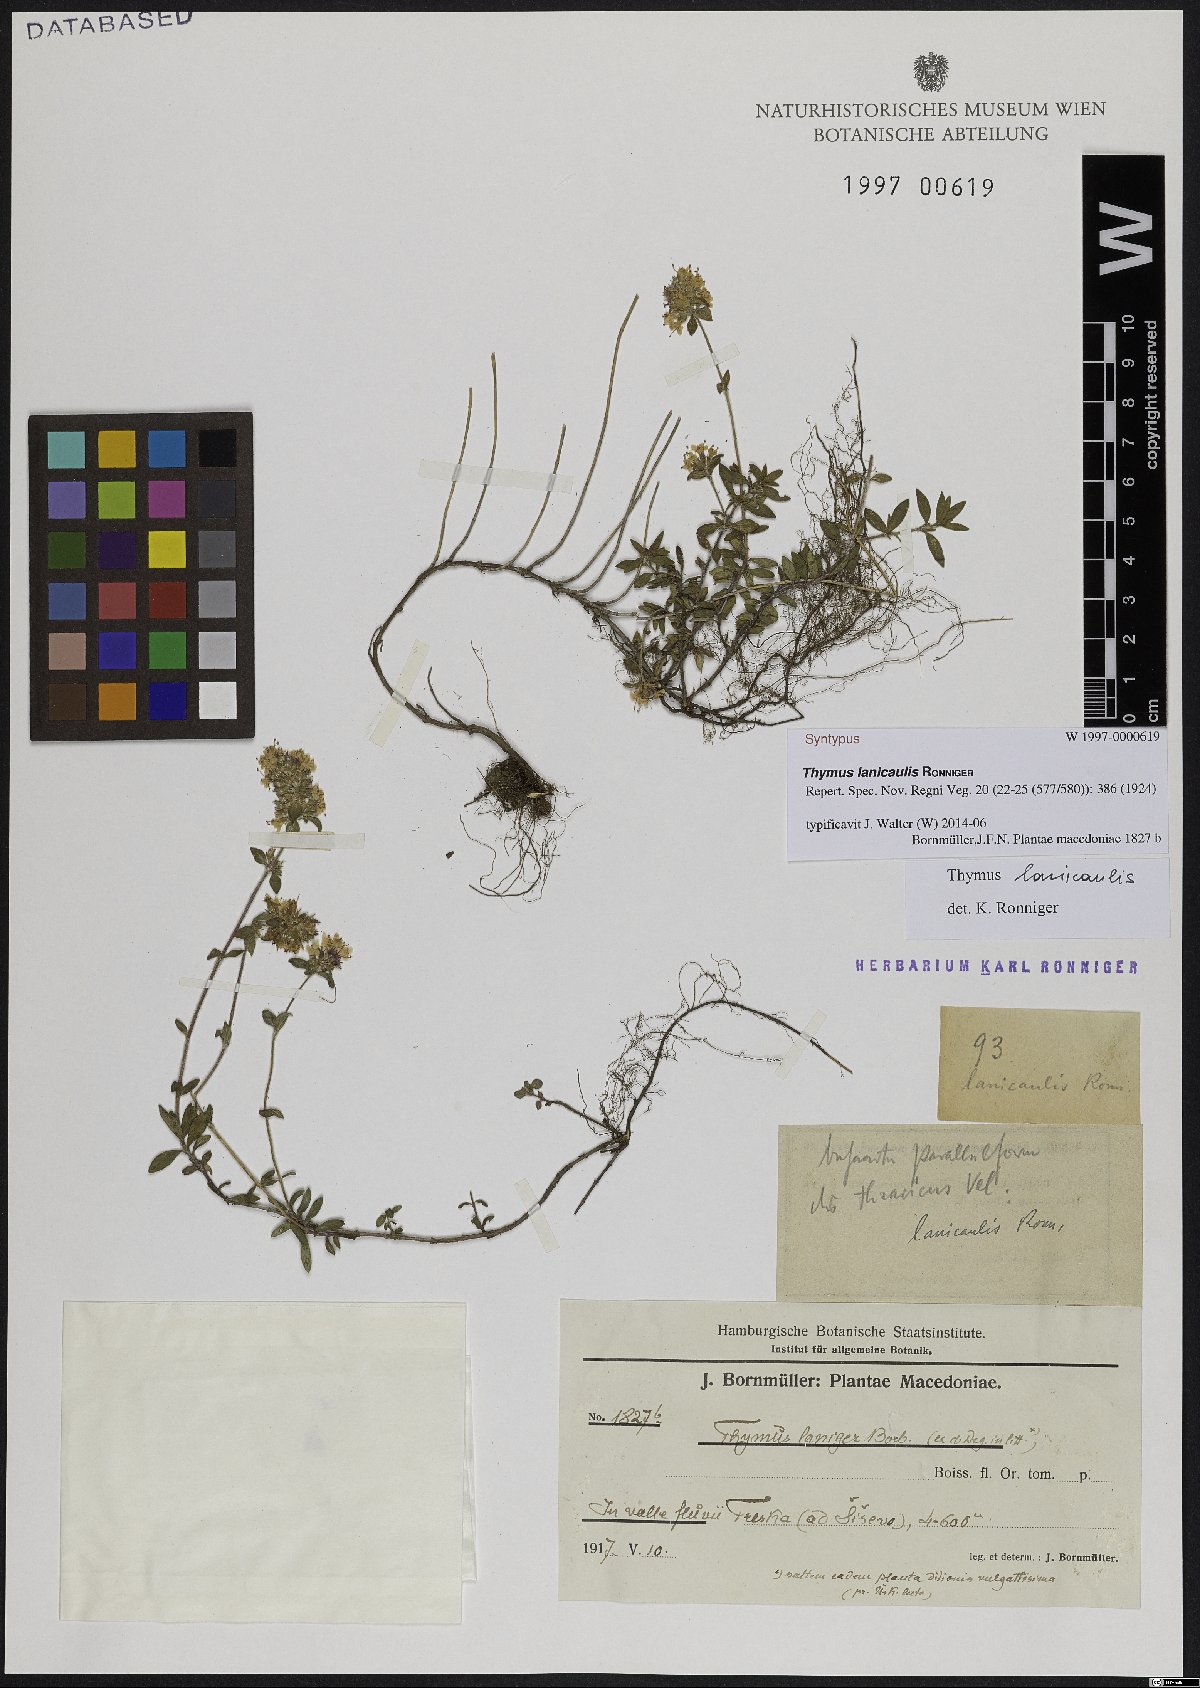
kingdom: Plantae
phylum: Tracheophyta
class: Magnoliopsida
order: Lamiales
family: Lamiaceae
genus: Thymus
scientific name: Thymus thracicus
